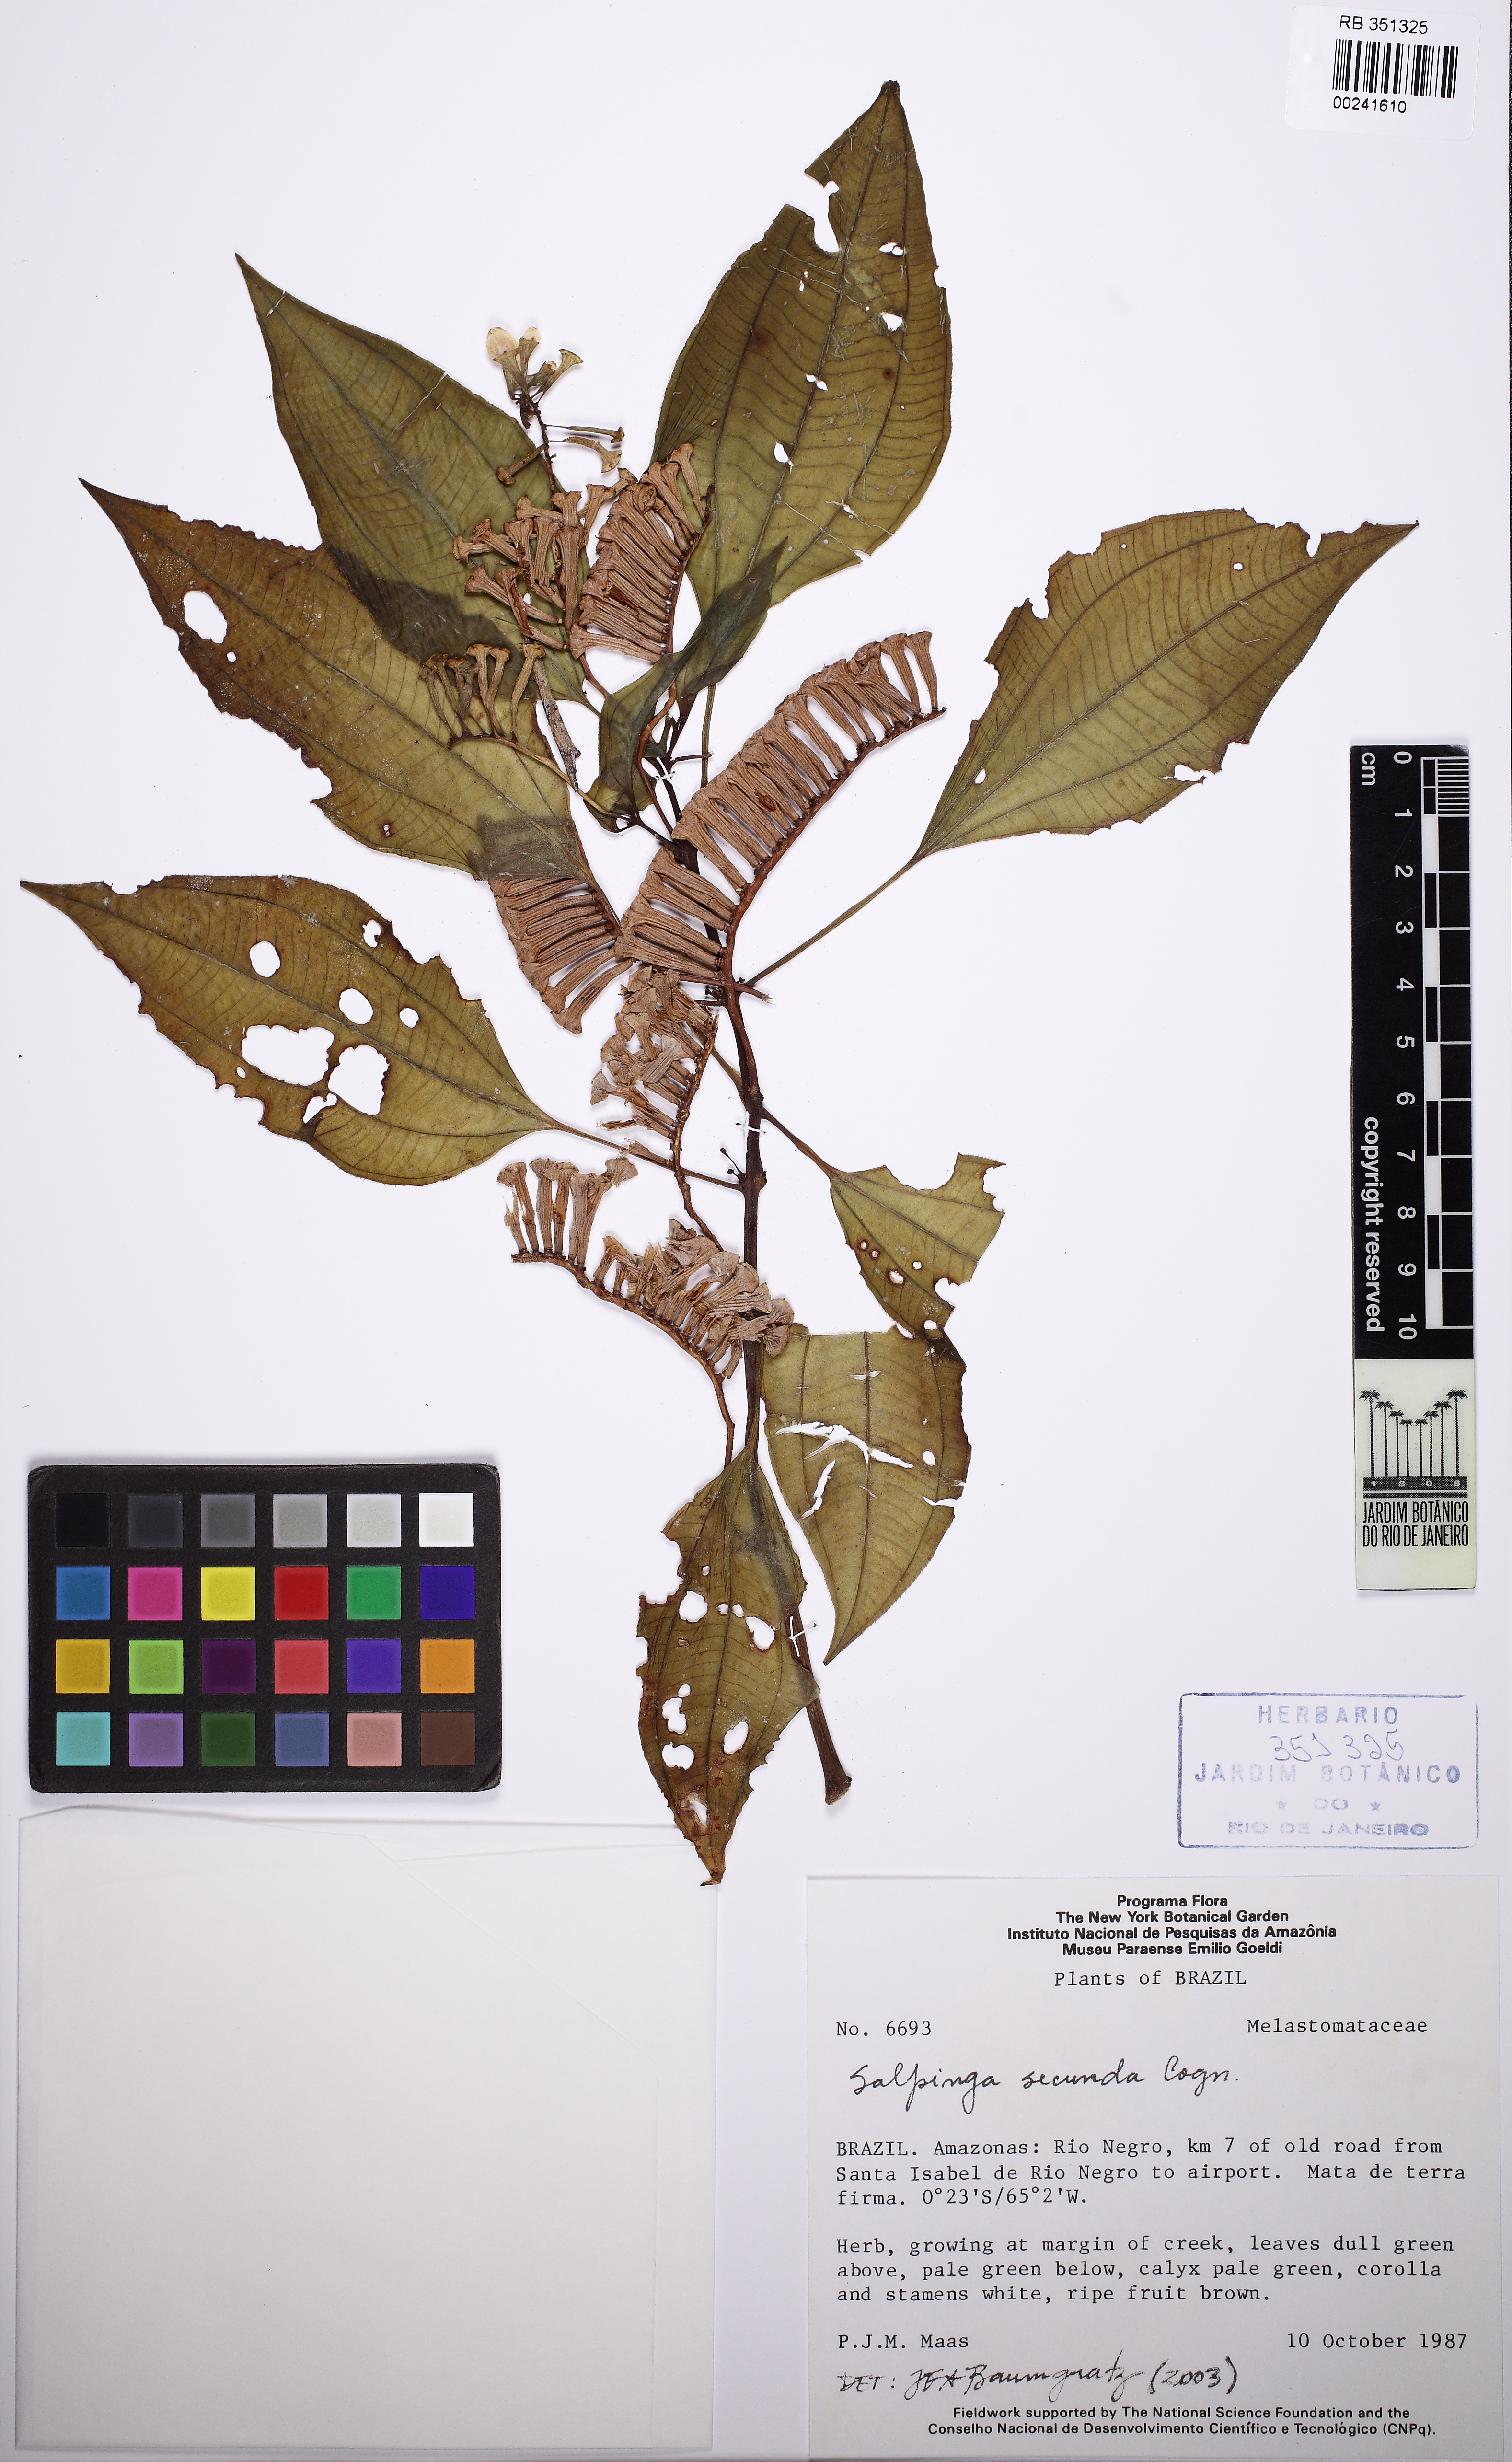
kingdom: Plantae
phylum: Tracheophyta
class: Magnoliopsida
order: Myrtales
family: Melastomataceae
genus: Salpinga
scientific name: Salpinga secunda
